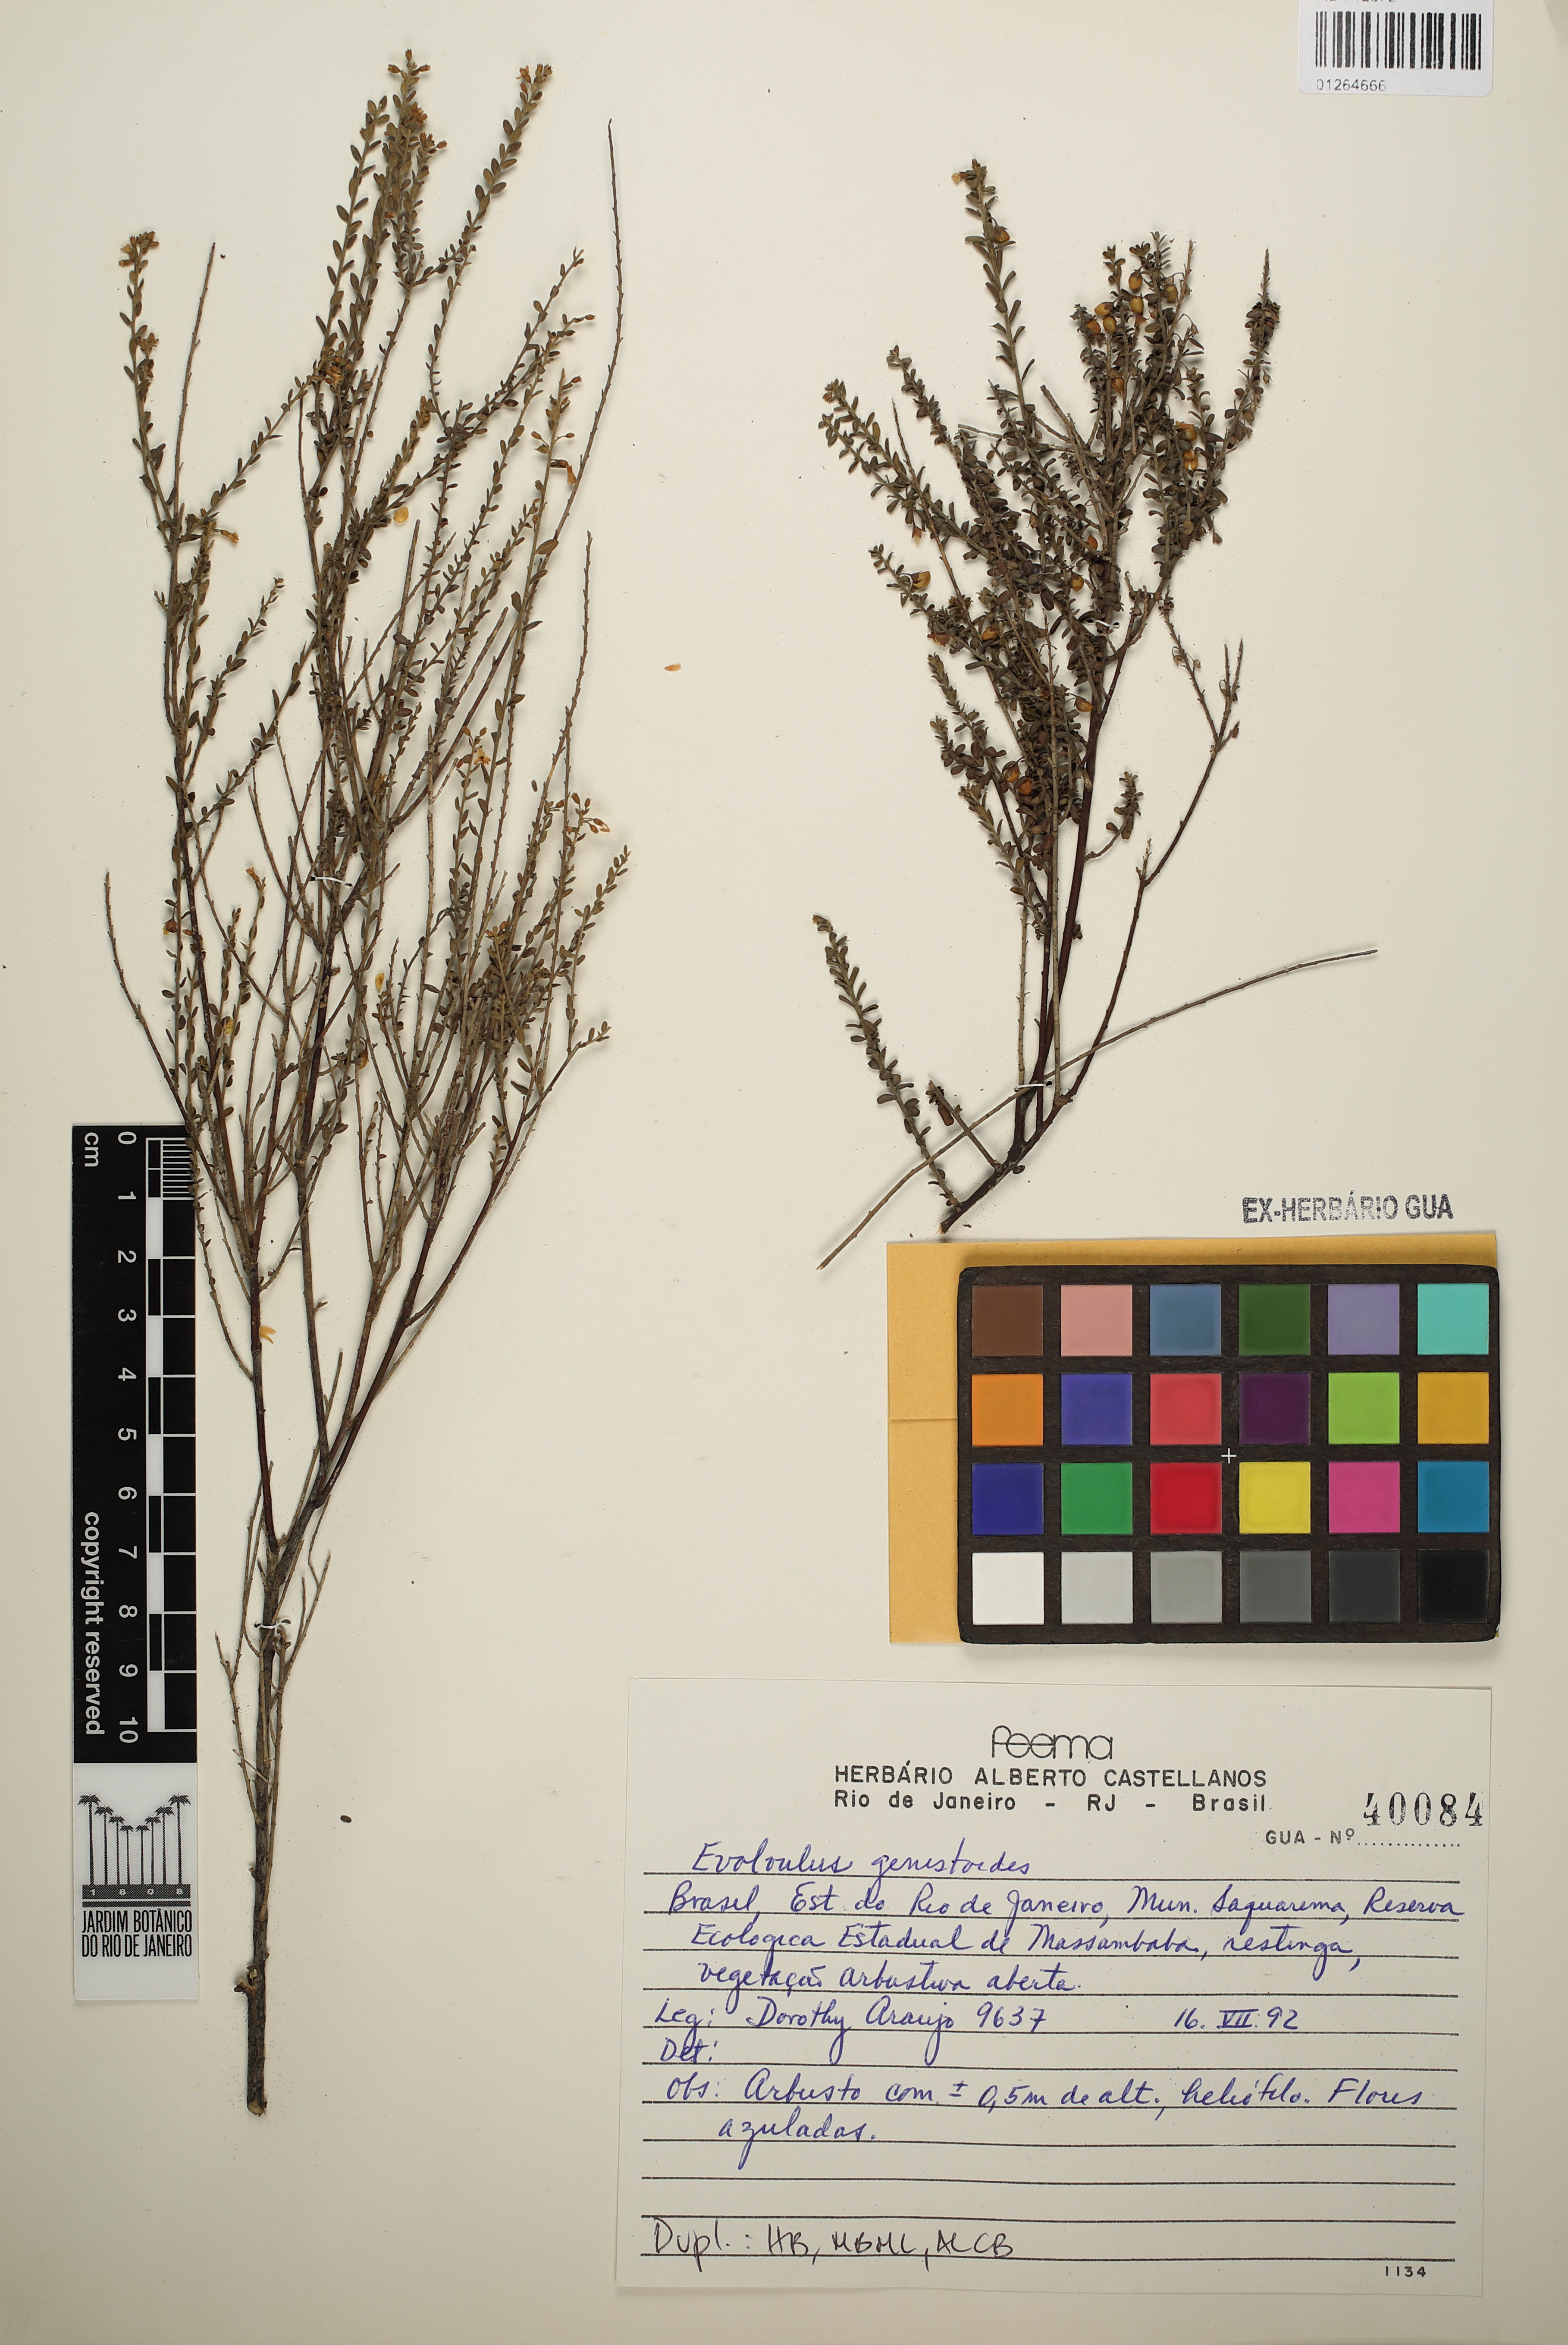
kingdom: Plantae
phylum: Tracheophyta
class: Magnoliopsida
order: Solanales
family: Convolvulaceae
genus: Evolvulus
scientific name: Evolvulus genistoides
